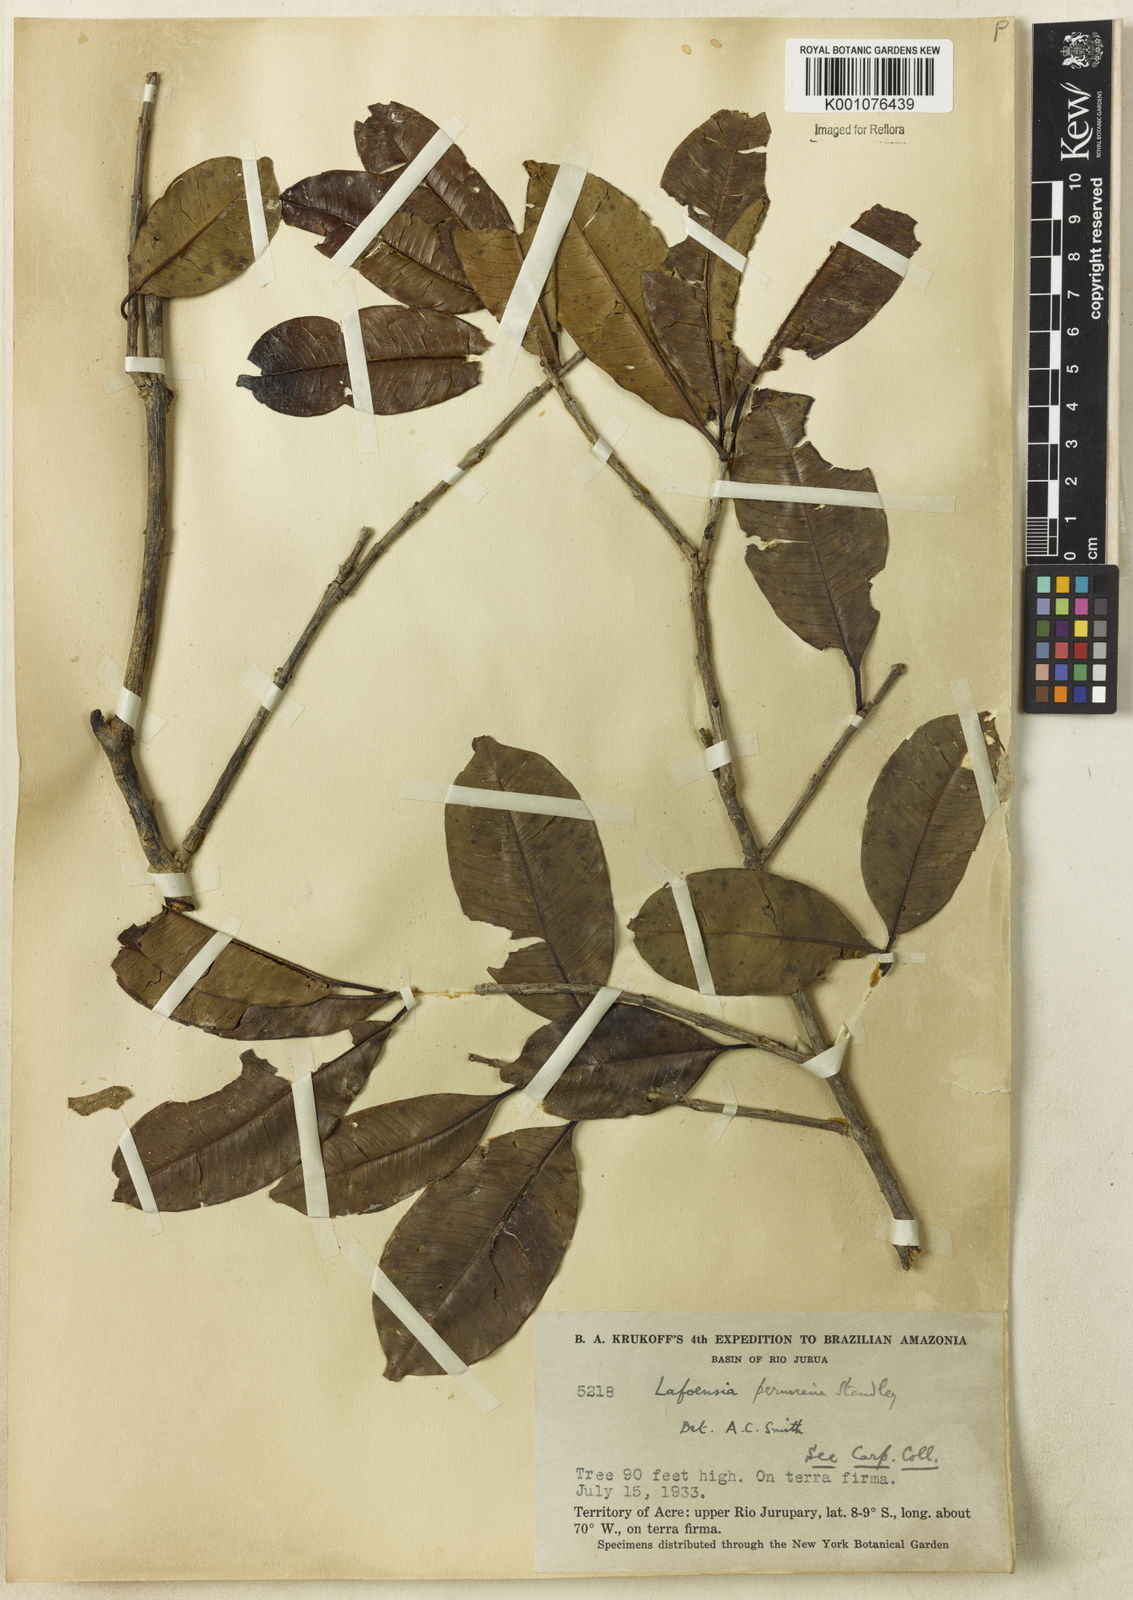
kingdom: Plantae
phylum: Tracheophyta
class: Magnoliopsida
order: Myrtales
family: Lythraceae
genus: Lafoensia
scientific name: Lafoensia
